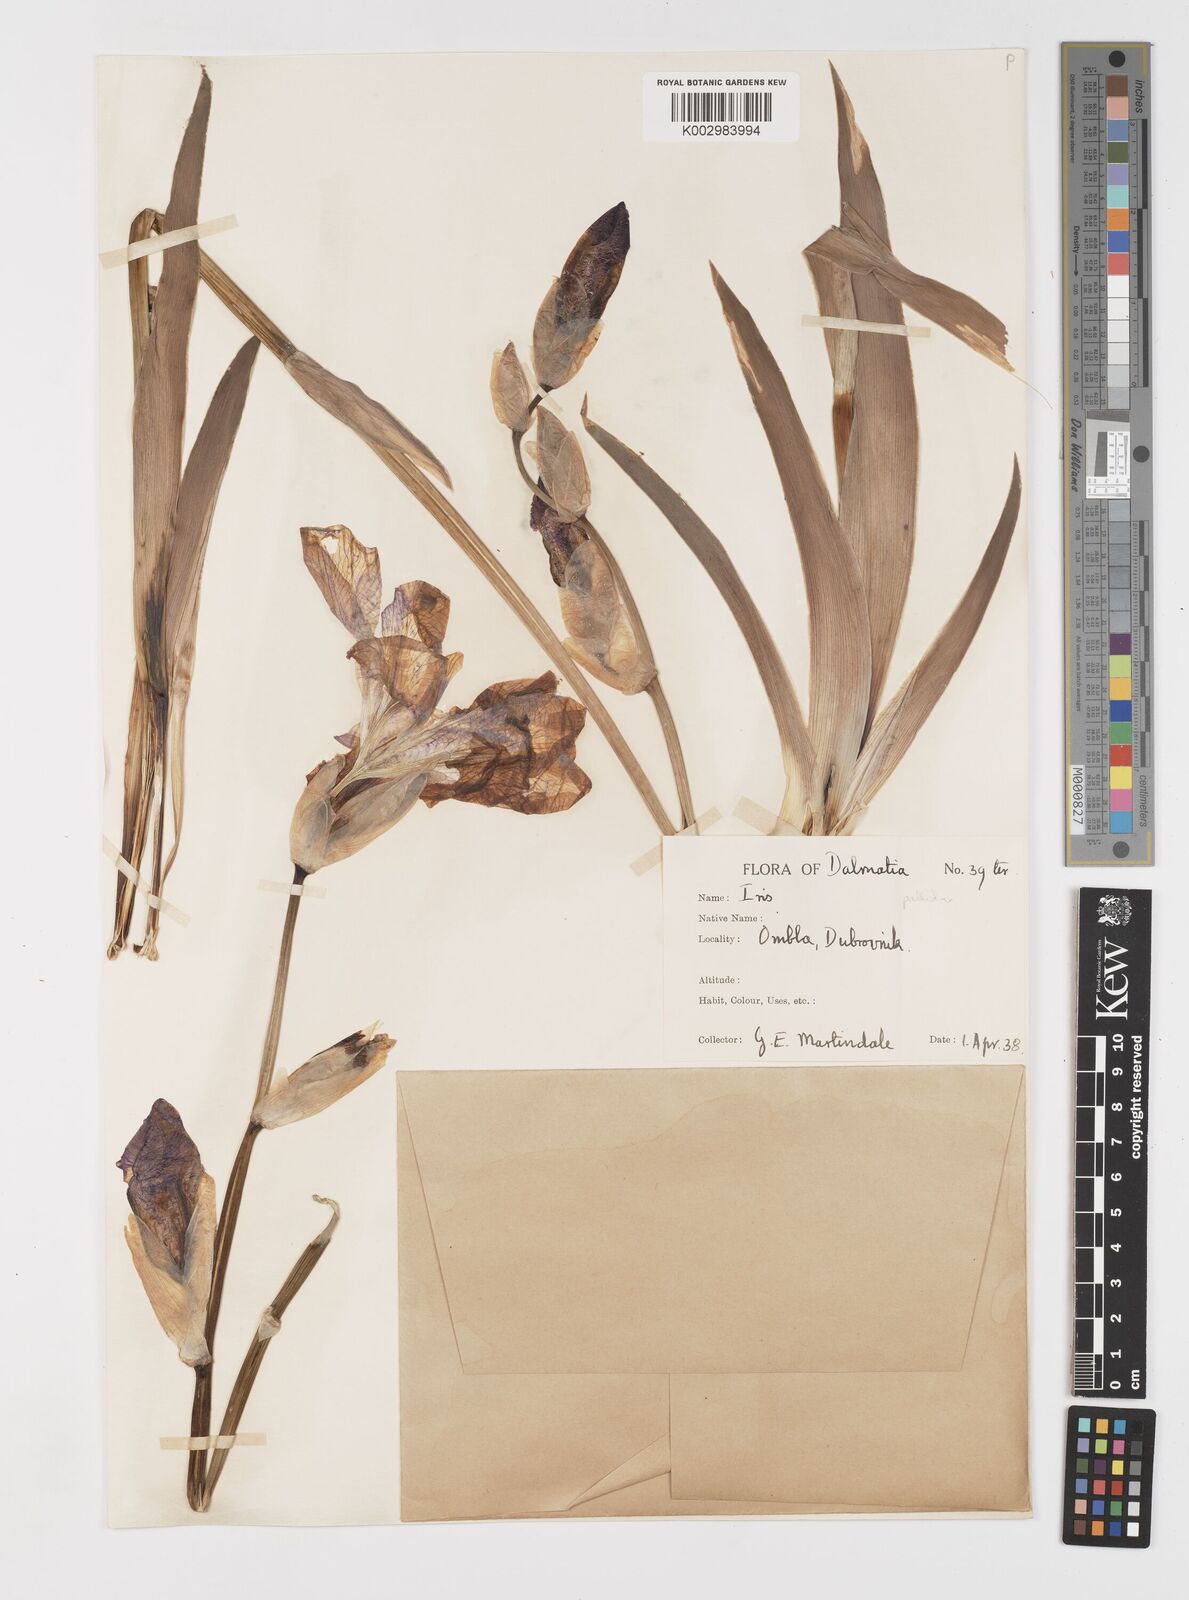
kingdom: Plantae
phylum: Tracheophyta
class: Liliopsida
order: Asparagales
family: Iridaceae
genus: Iris
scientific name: Iris halophila
